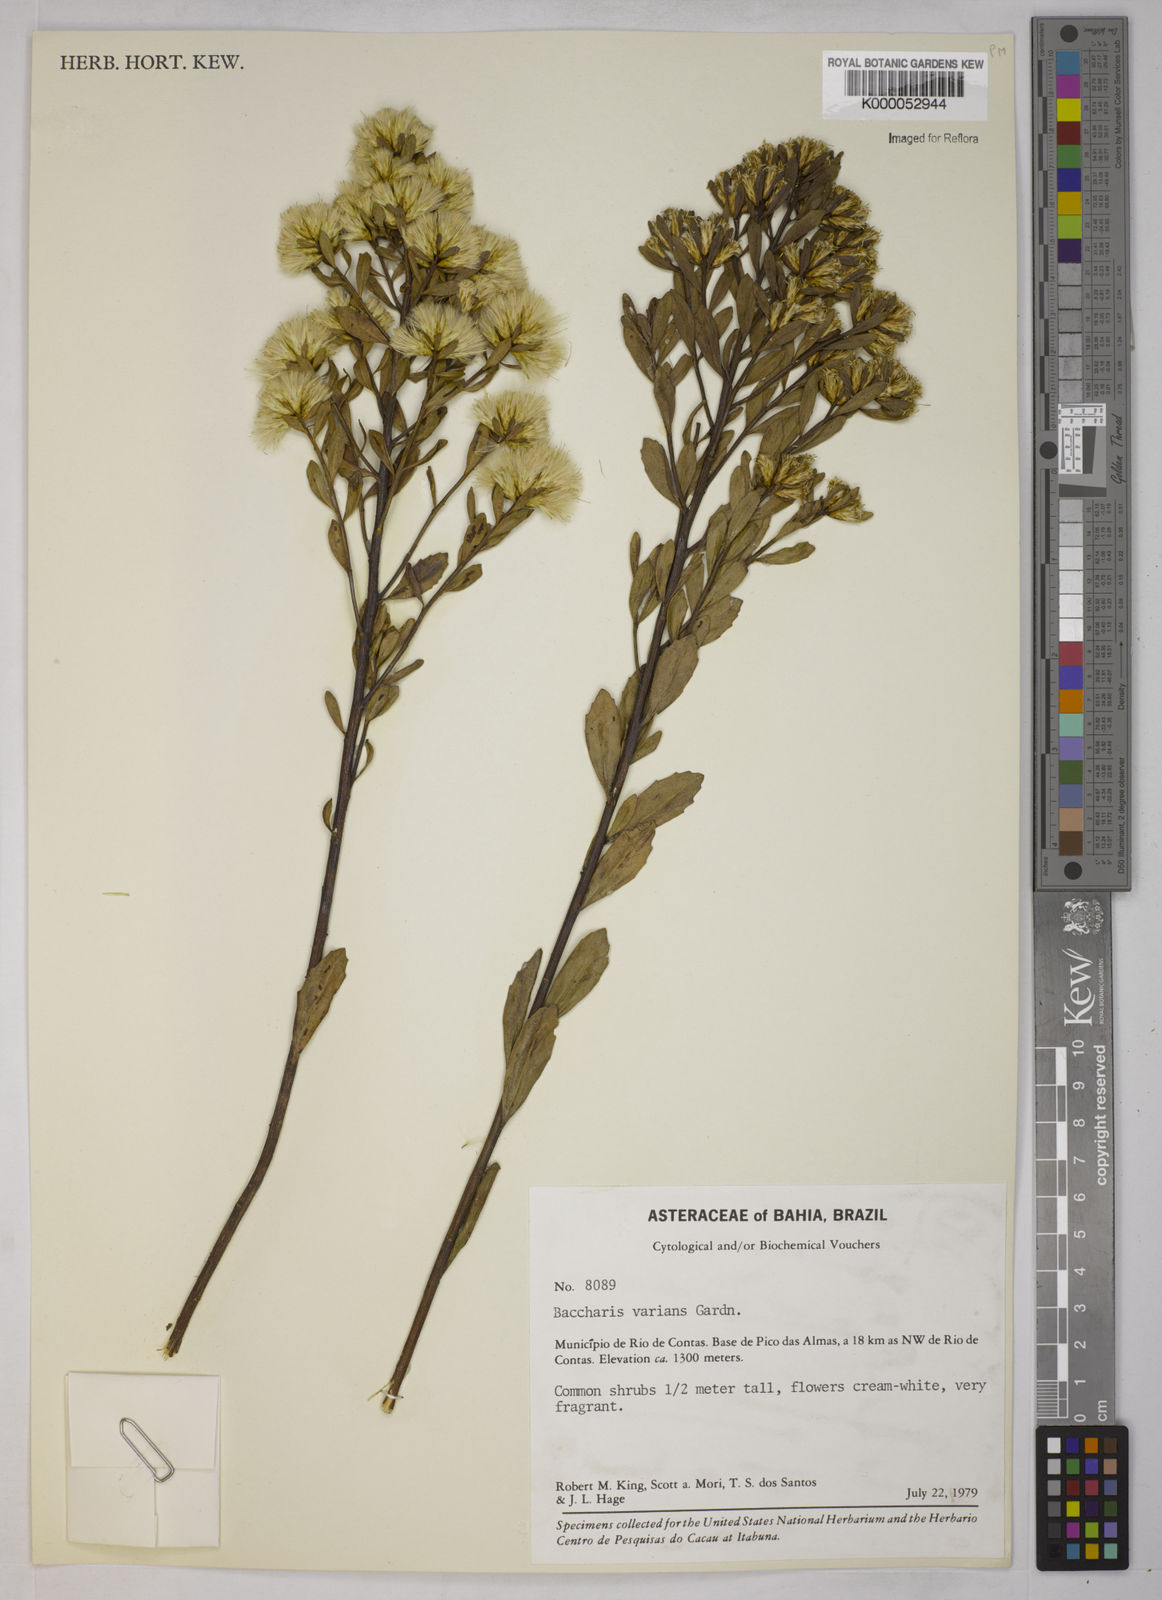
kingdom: Plantae
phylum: Tracheophyta
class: Magnoliopsida
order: Asterales
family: Asteraceae
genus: Baccharis
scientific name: Baccharis varians
